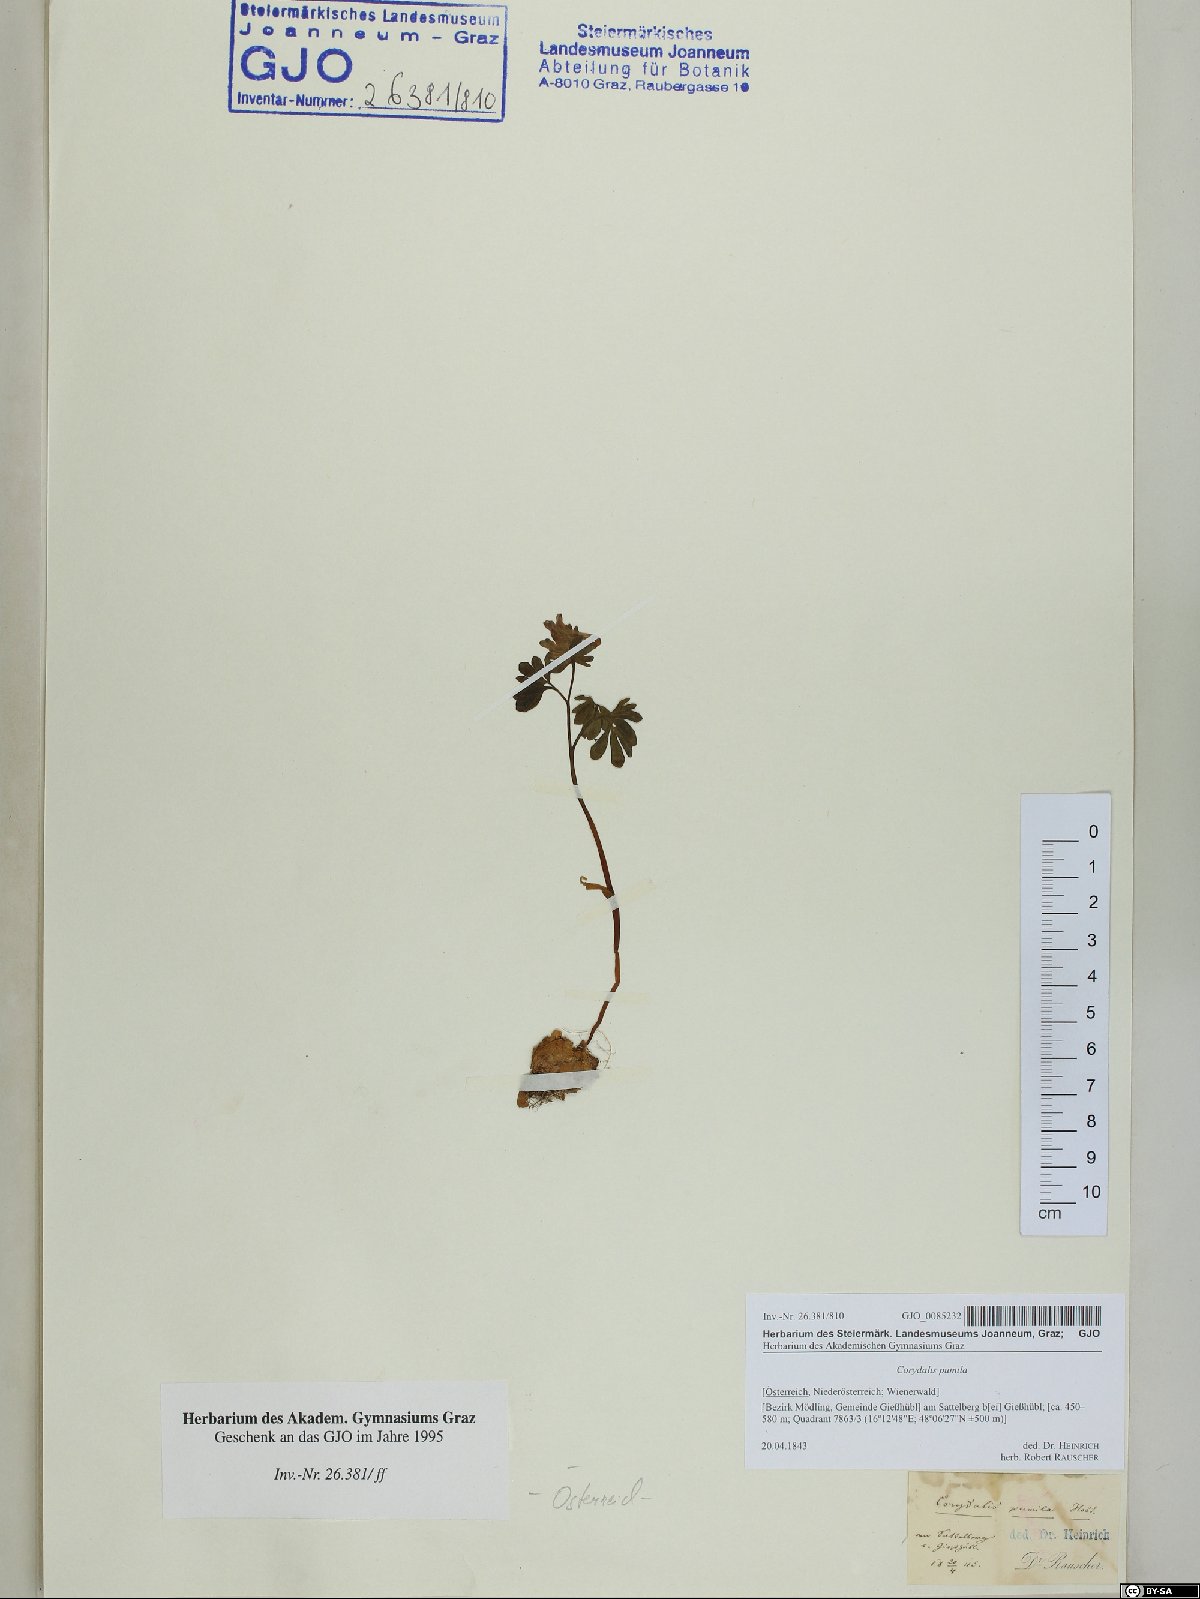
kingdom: Plantae
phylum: Tracheophyta
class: Magnoliopsida
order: Ranunculales
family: Papaveraceae
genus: Corydalis
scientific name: Corydalis pumila
